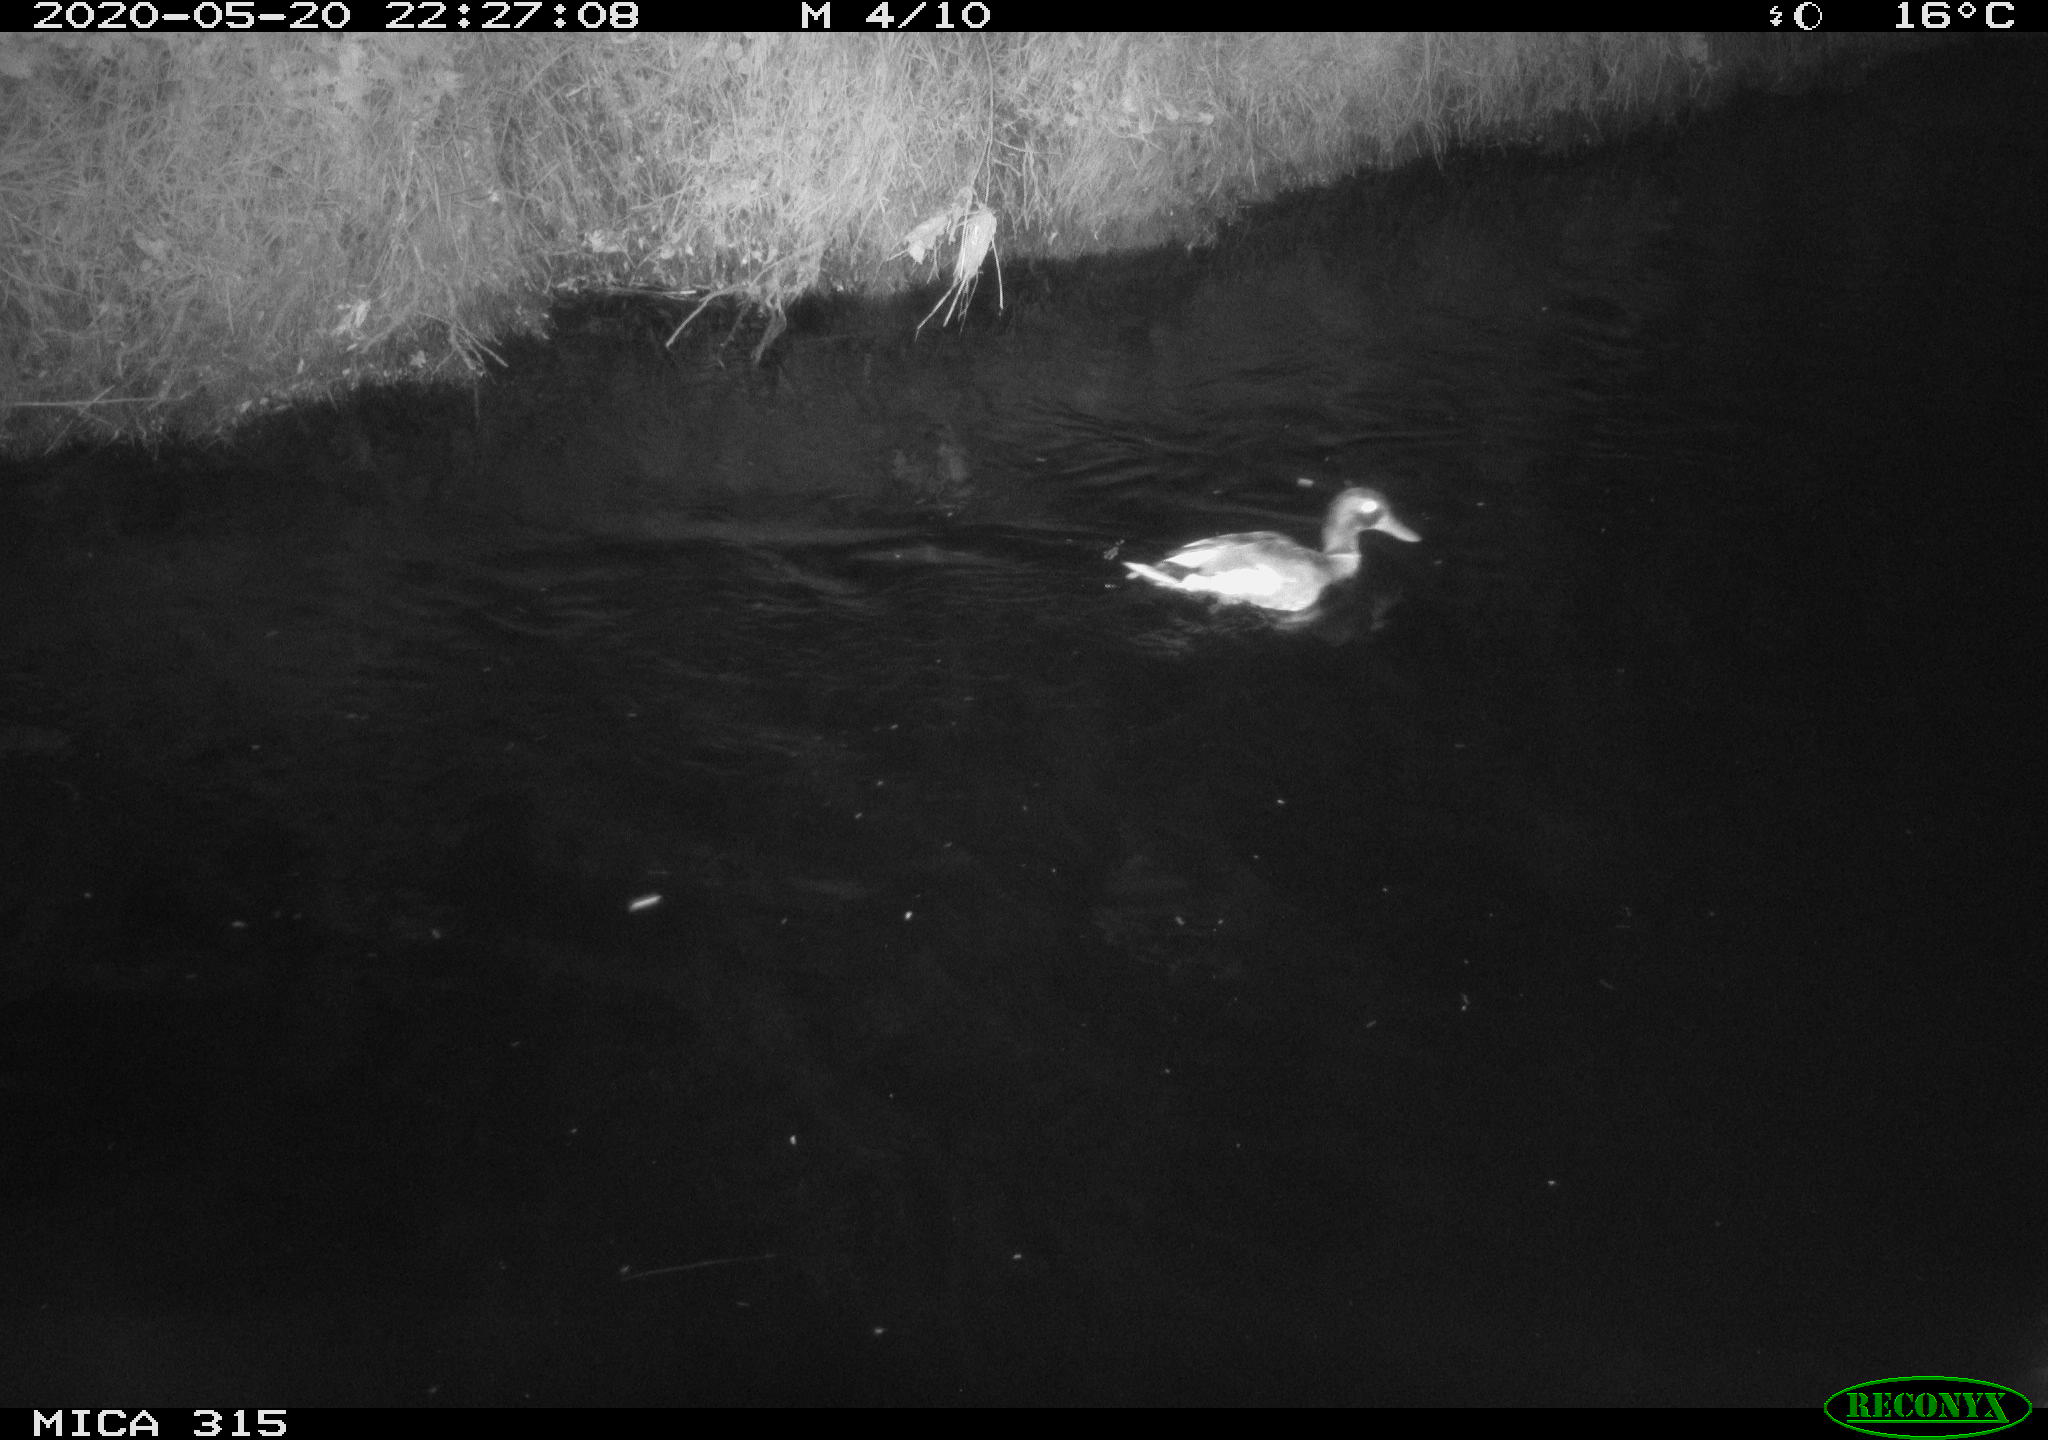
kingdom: Animalia
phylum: Chordata
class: Aves
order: Anseriformes
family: Anatidae
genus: Anas
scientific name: Anas platyrhynchos
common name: Mallard
